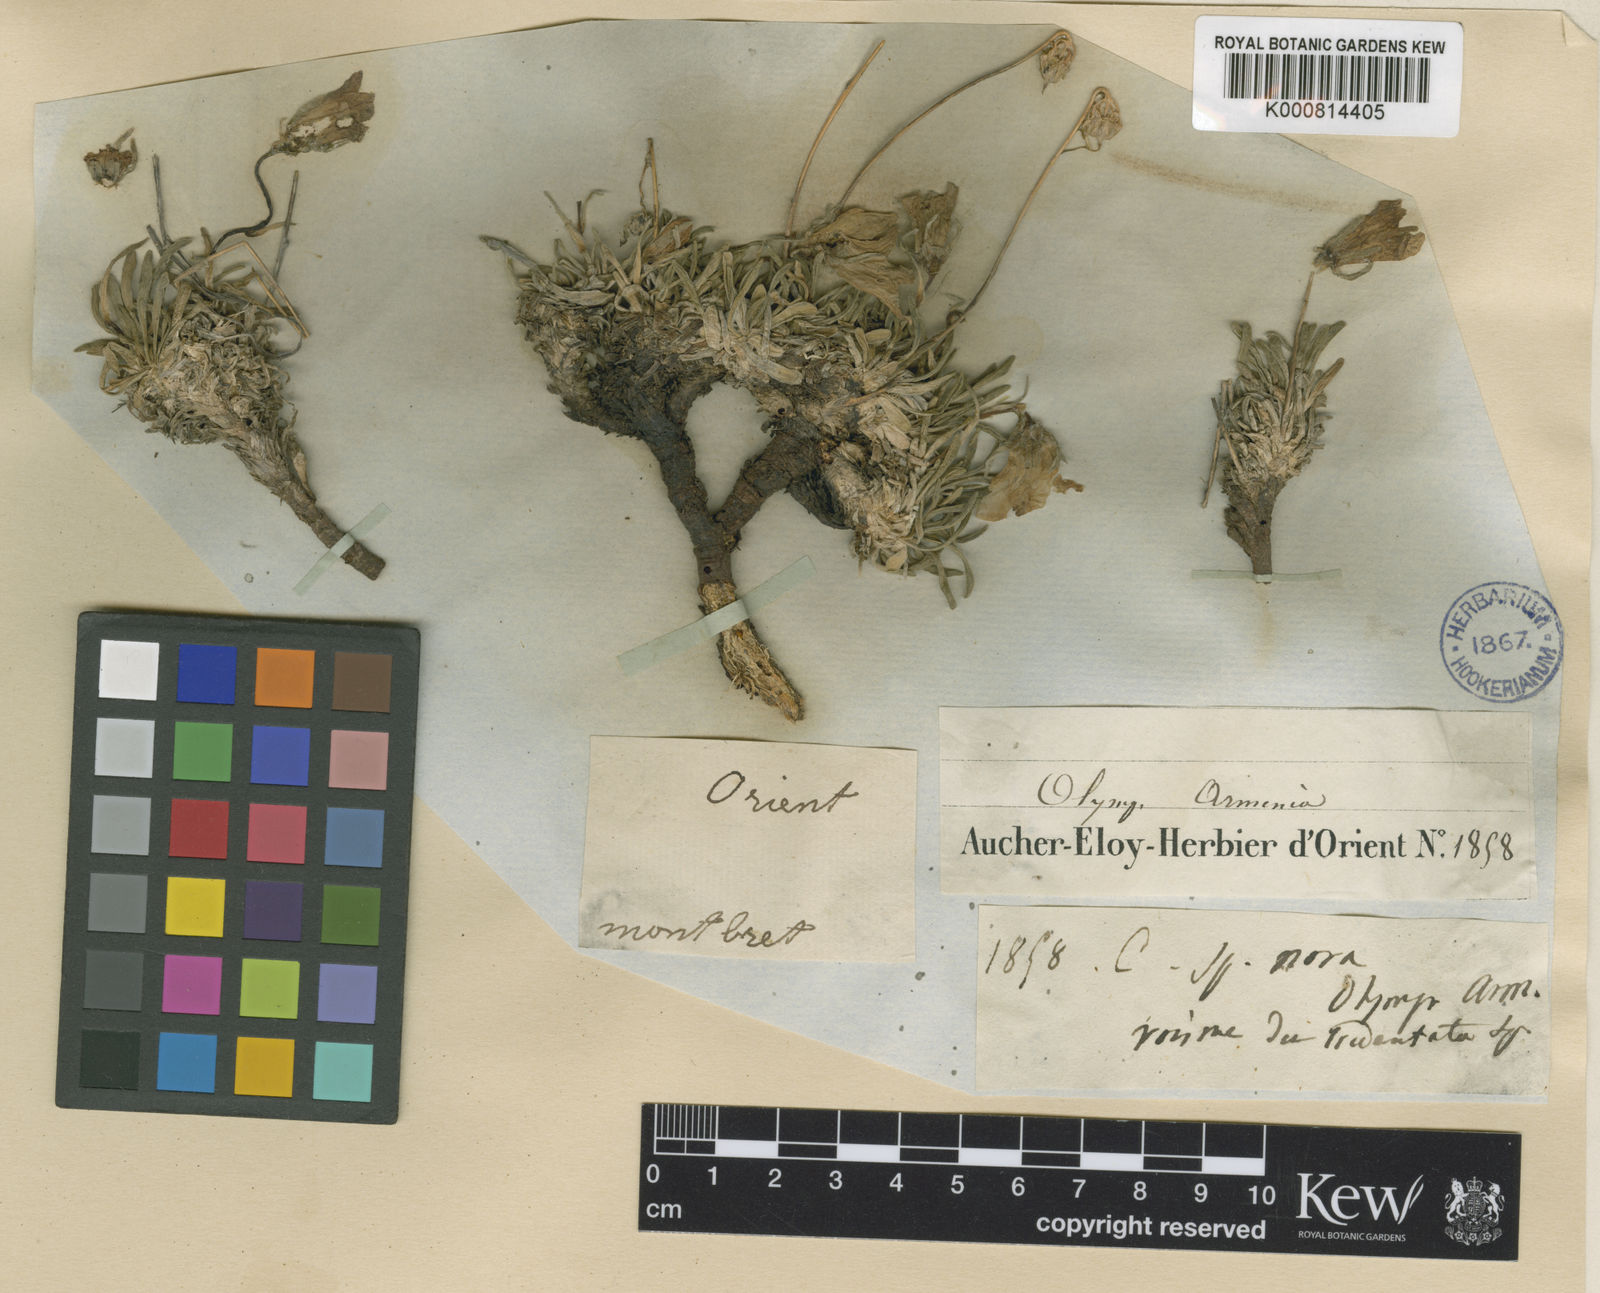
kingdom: Plantae
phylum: Tracheophyta
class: Magnoliopsida
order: Asterales
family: Campanulaceae
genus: Campanula
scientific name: Campanula tridentata
